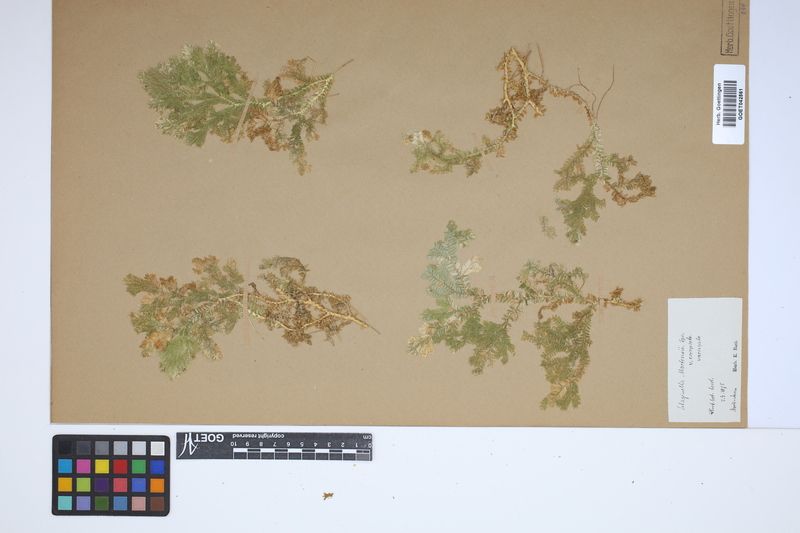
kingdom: Plantae
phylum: Tracheophyta
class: Lycopodiopsida
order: Selaginellales
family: Selaginellaceae
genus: Selaginella
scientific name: Selaginella martensii
